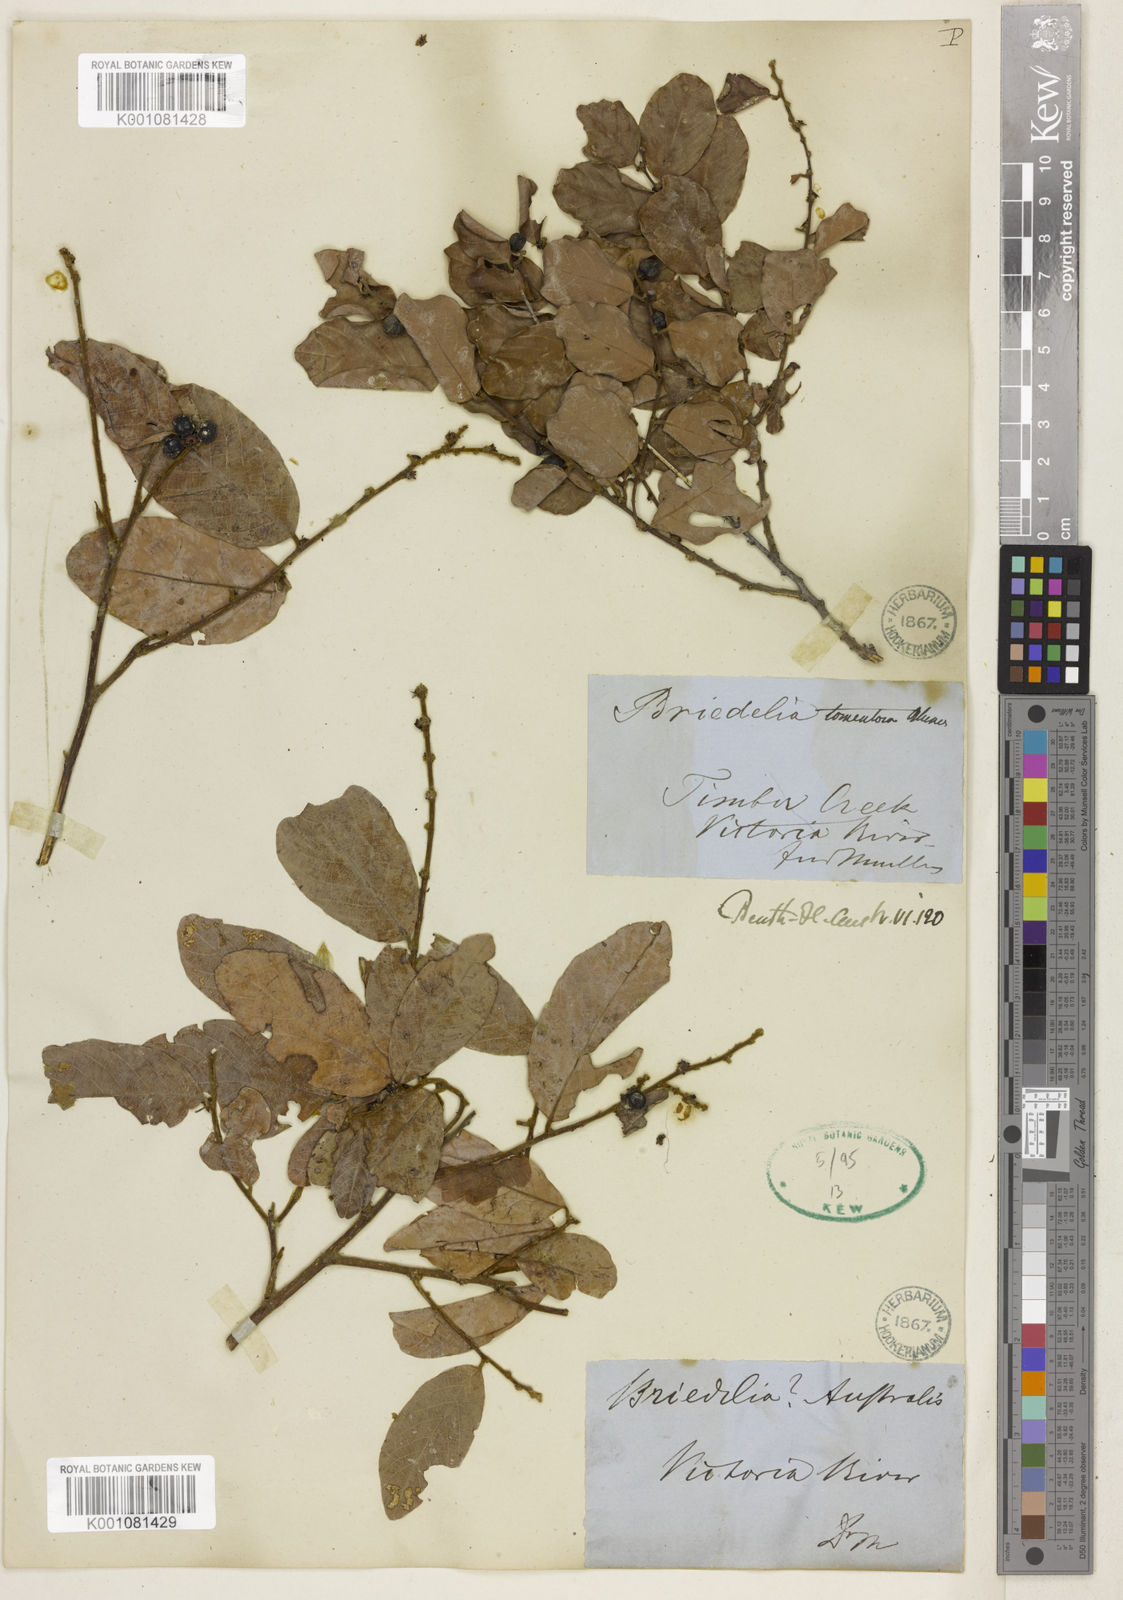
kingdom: Plantae
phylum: Tracheophyta
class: Magnoliopsida
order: Malpighiales
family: Phyllanthaceae
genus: Bridelia
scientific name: Bridelia tomentosa
